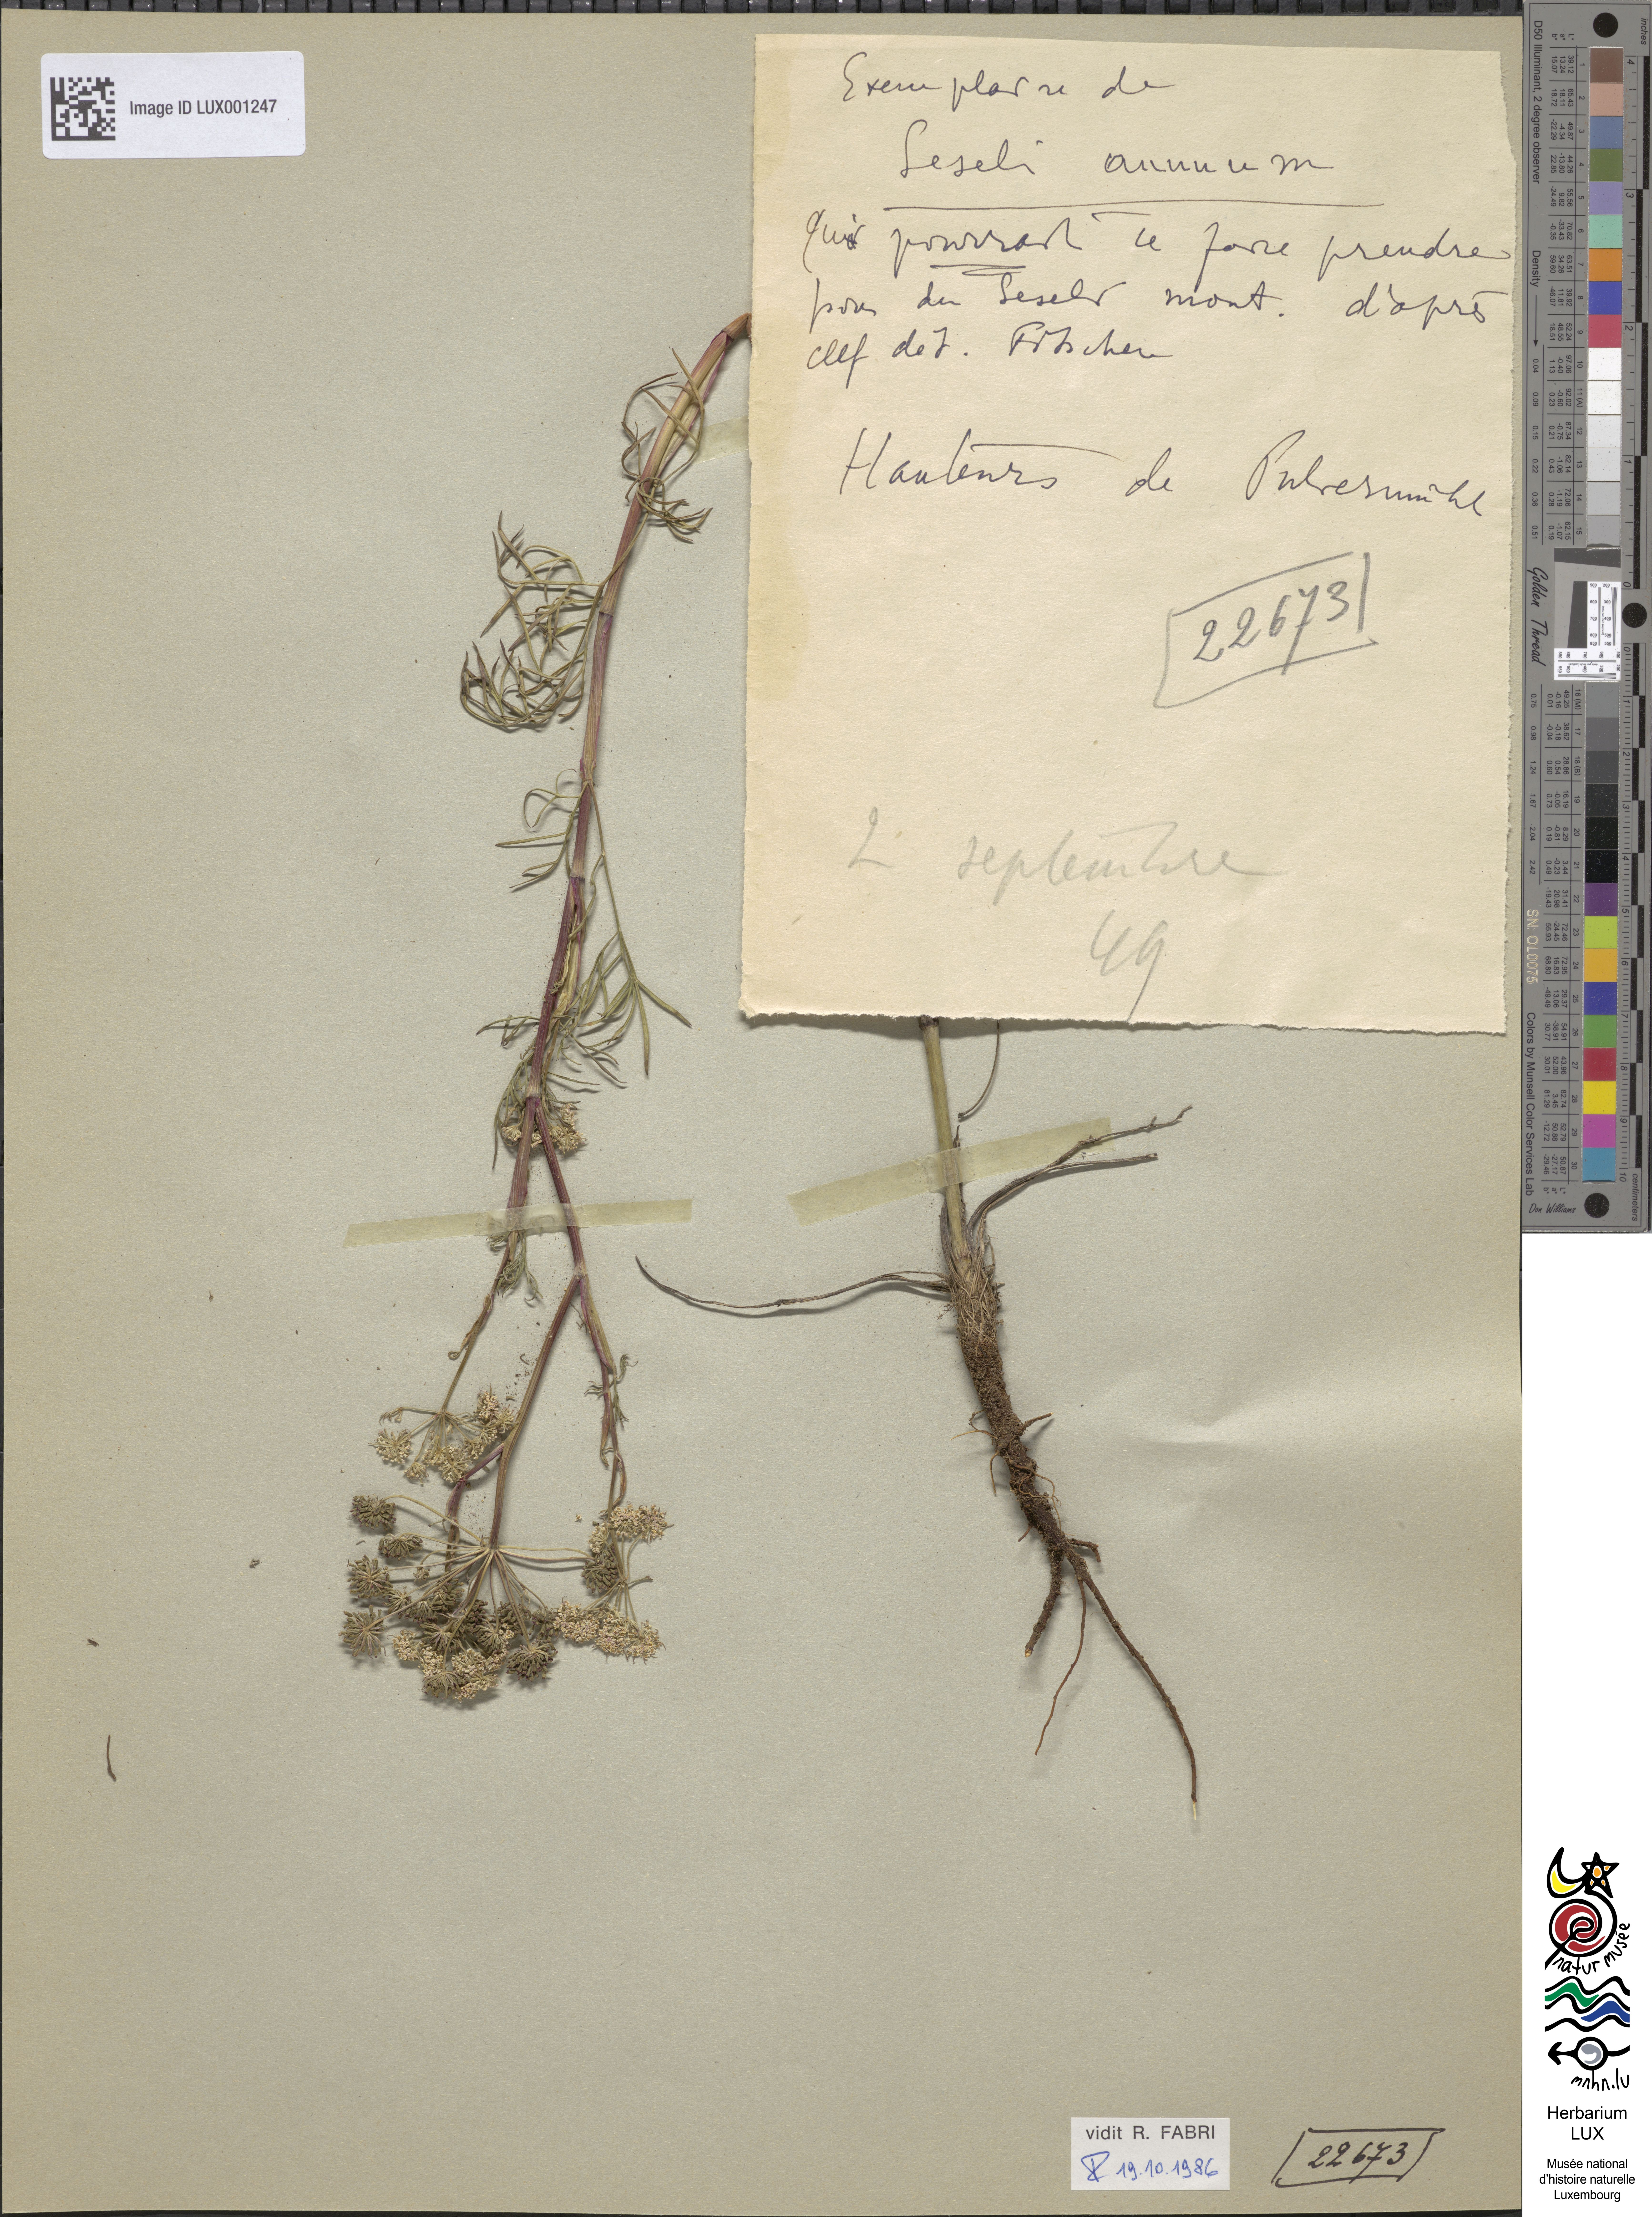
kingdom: Plantae
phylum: Tracheophyta
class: Magnoliopsida
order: Apiales
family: Apiaceae
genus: Seseli
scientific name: Seseli annuum
